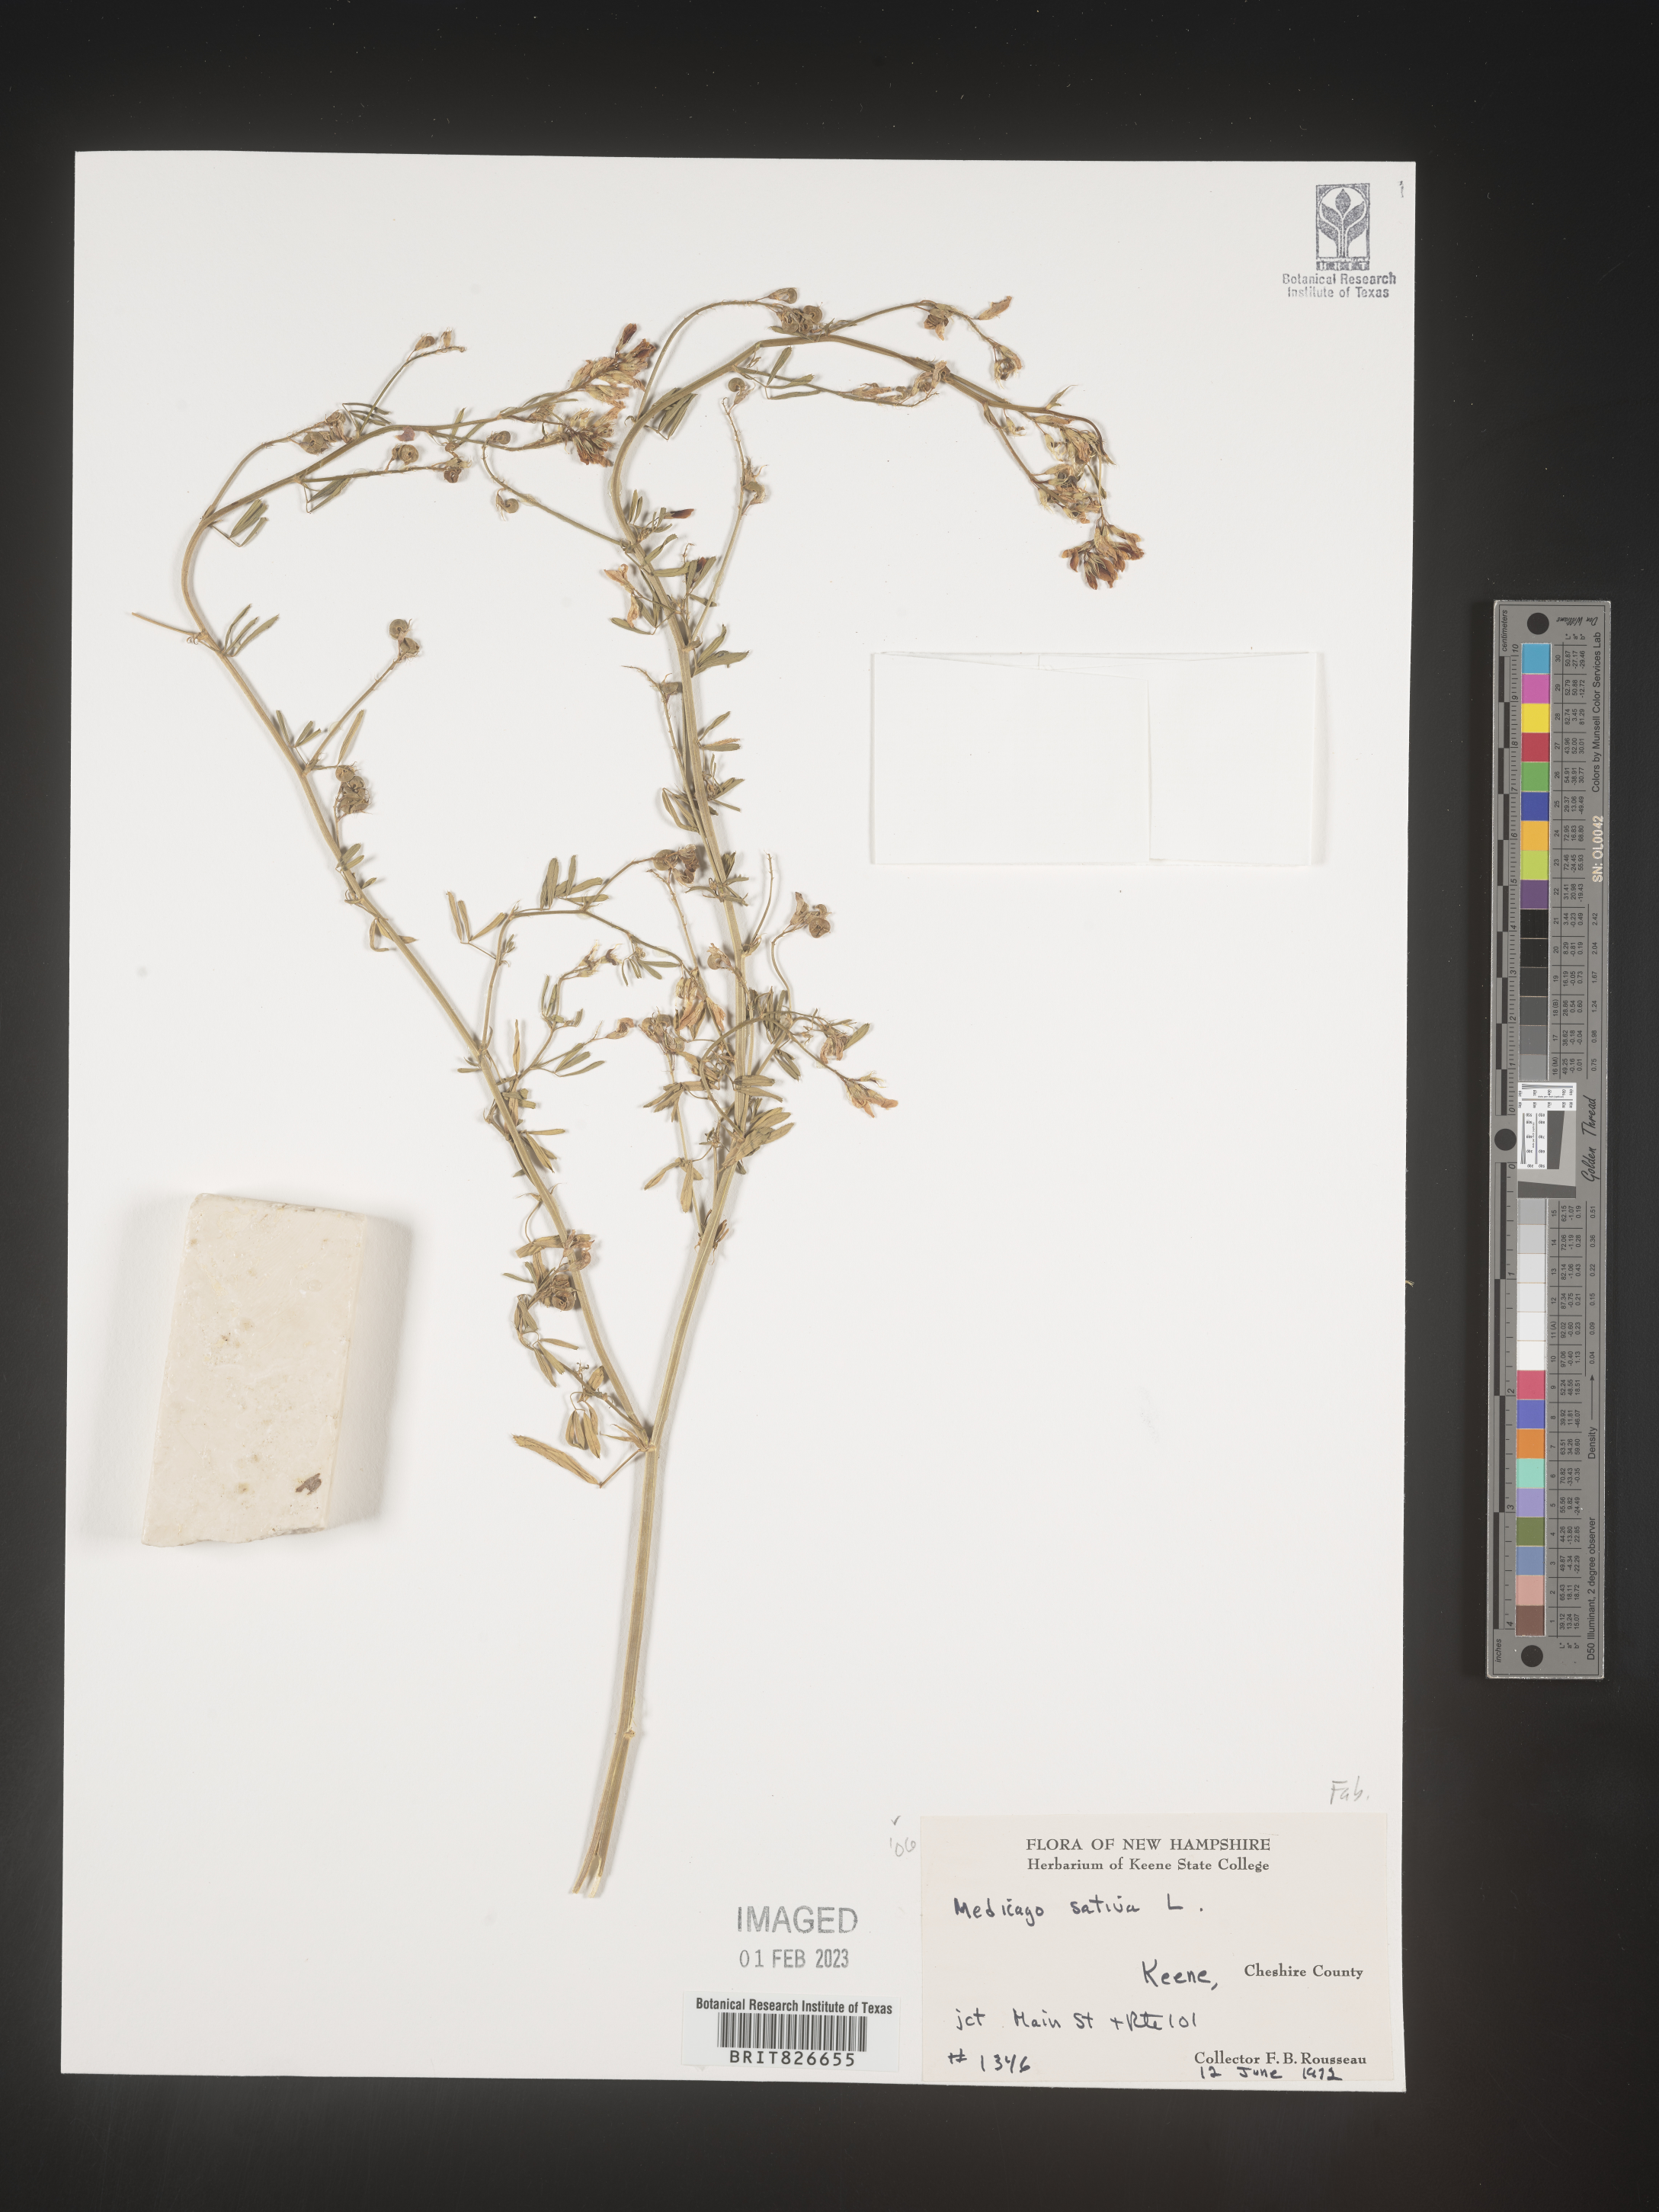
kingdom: Plantae
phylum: Tracheophyta
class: Magnoliopsida
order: Fabales
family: Fabaceae
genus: Medicago
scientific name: Medicago sativa
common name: Alfalfa
